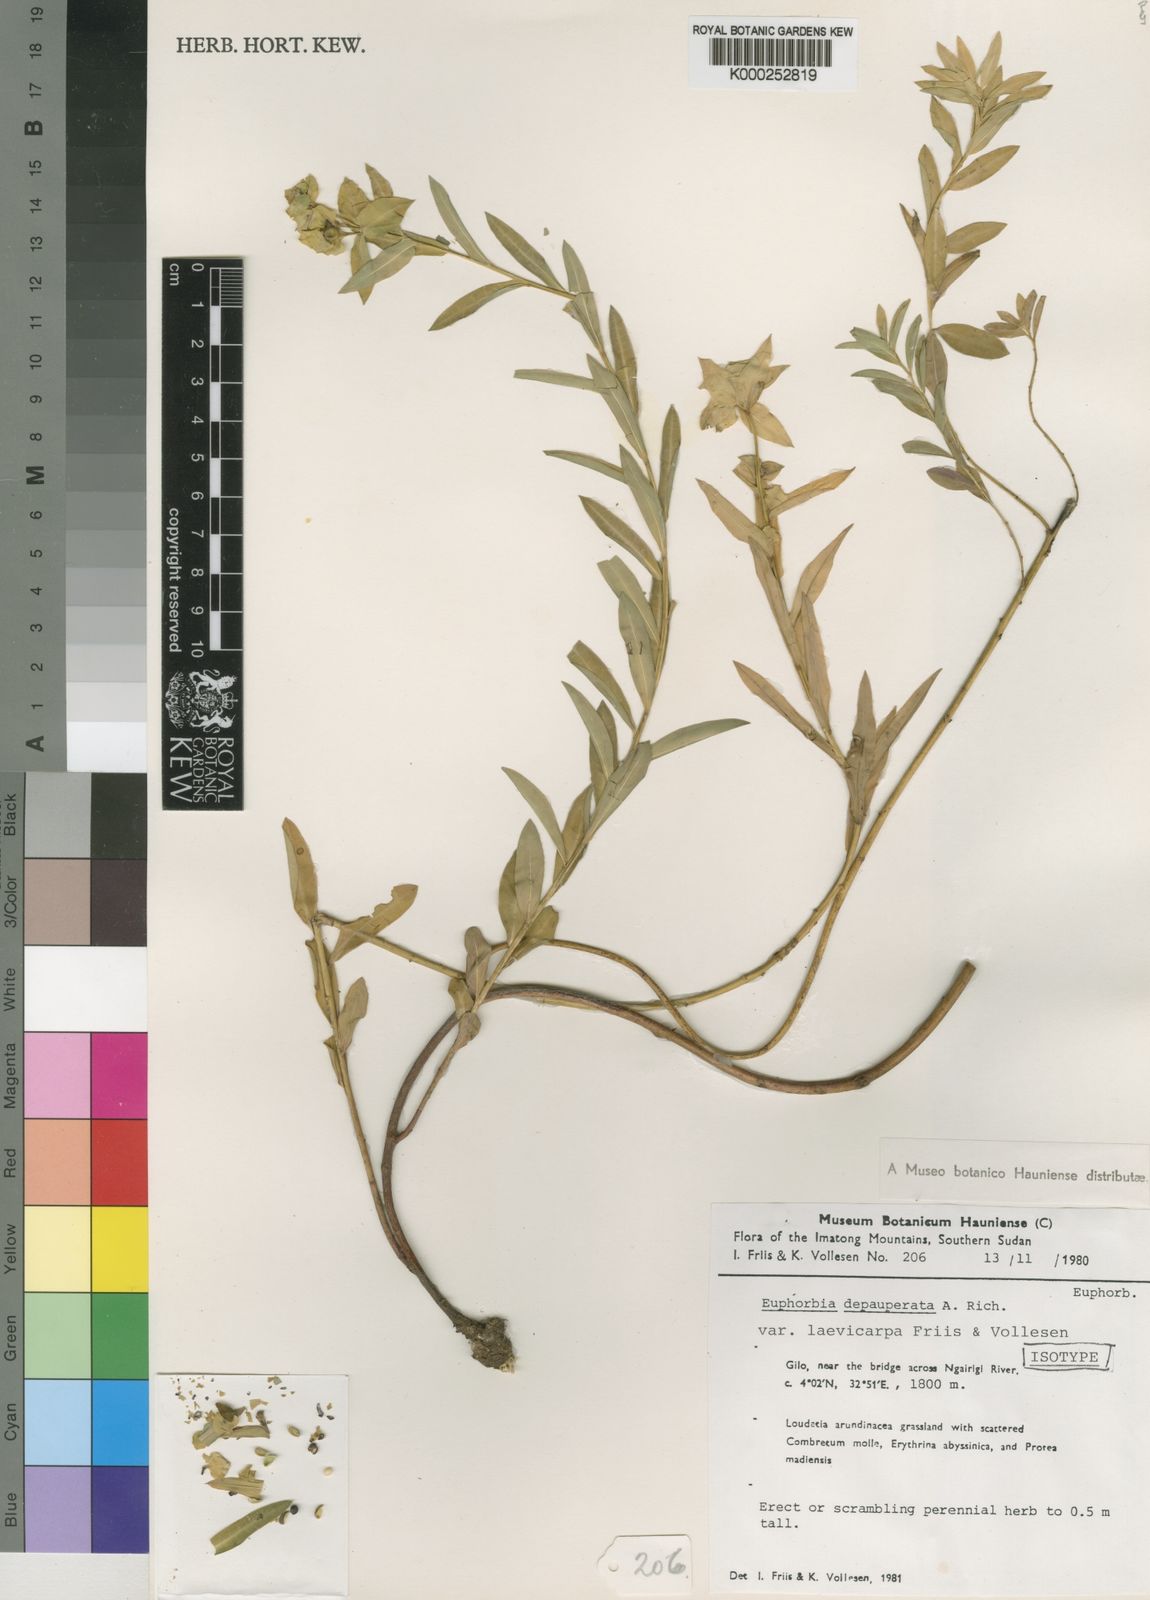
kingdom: Plantae
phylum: Tracheophyta
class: Magnoliopsida
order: Malpighiales
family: Euphorbiaceae
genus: Euphorbia
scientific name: Euphorbia depauperata
